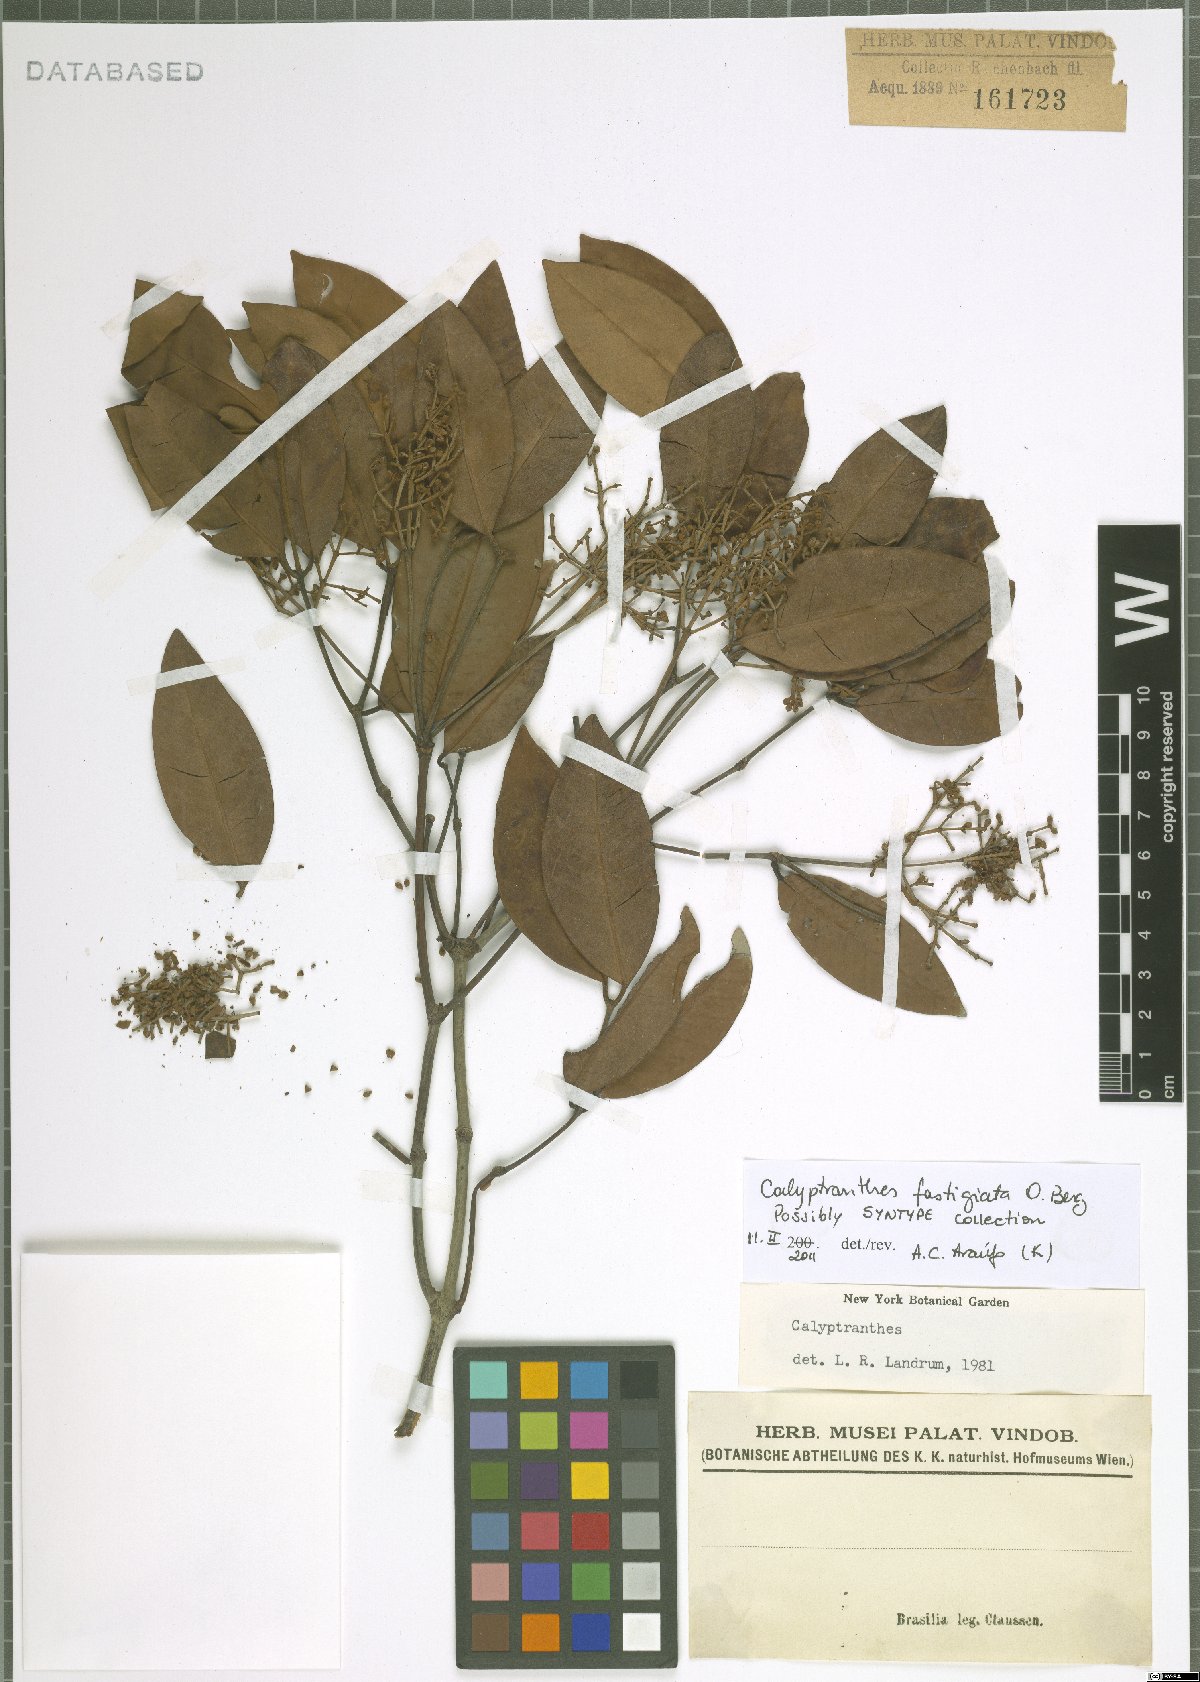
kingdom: Plantae
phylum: Tracheophyta
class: Magnoliopsida
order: Myrtales
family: Myrtaceae
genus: Myrcia
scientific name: Myrcia loranthifolia
